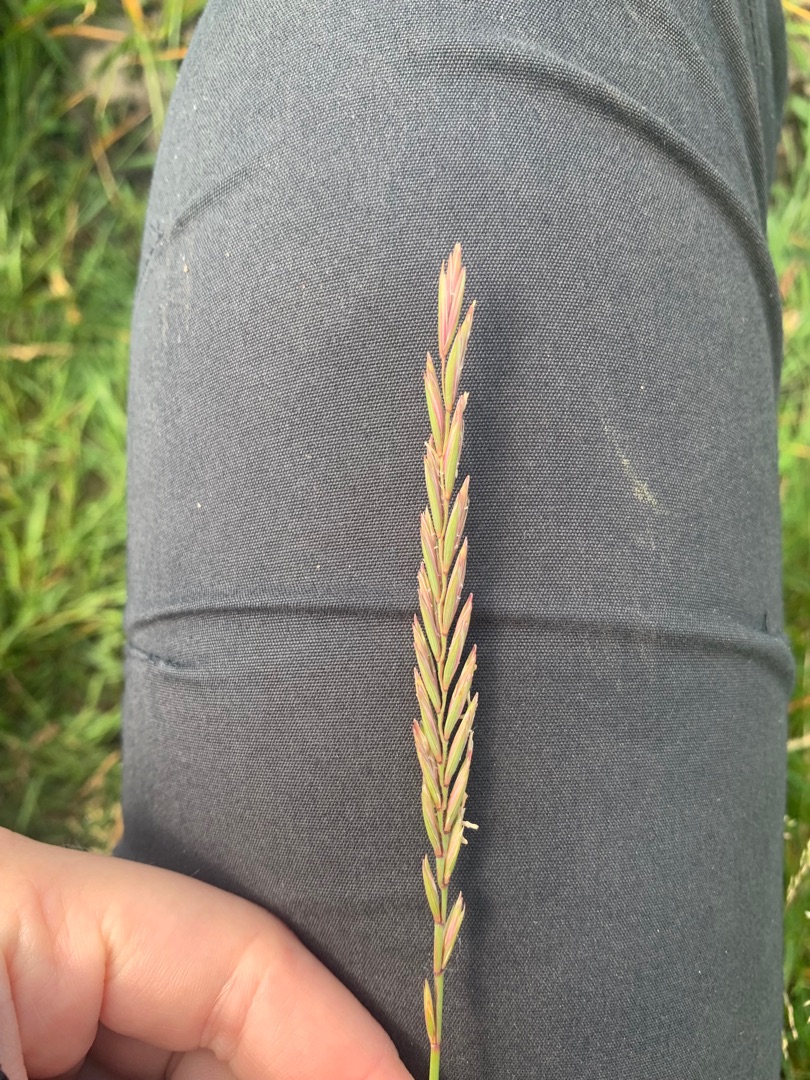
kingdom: Plantae
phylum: Tracheophyta
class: Liliopsida
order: Poales
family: Poaceae
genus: Elymus
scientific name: Elymus repens
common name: Almindelig kvik
